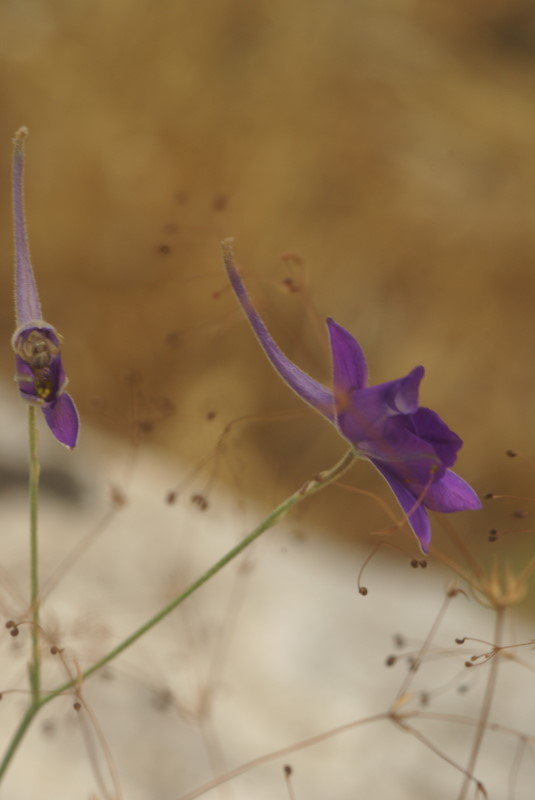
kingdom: Plantae
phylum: Tracheophyta
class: Magnoliopsida
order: Ranunculales
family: Ranunculaceae
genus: Delphinium
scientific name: Delphinium consolida
